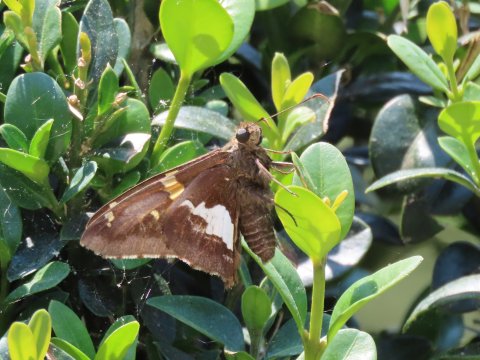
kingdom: Animalia
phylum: Arthropoda
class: Insecta
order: Lepidoptera
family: Hesperiidae
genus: Epargyreus
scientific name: Epargyreus clarus
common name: Silver-spotted Skipper
